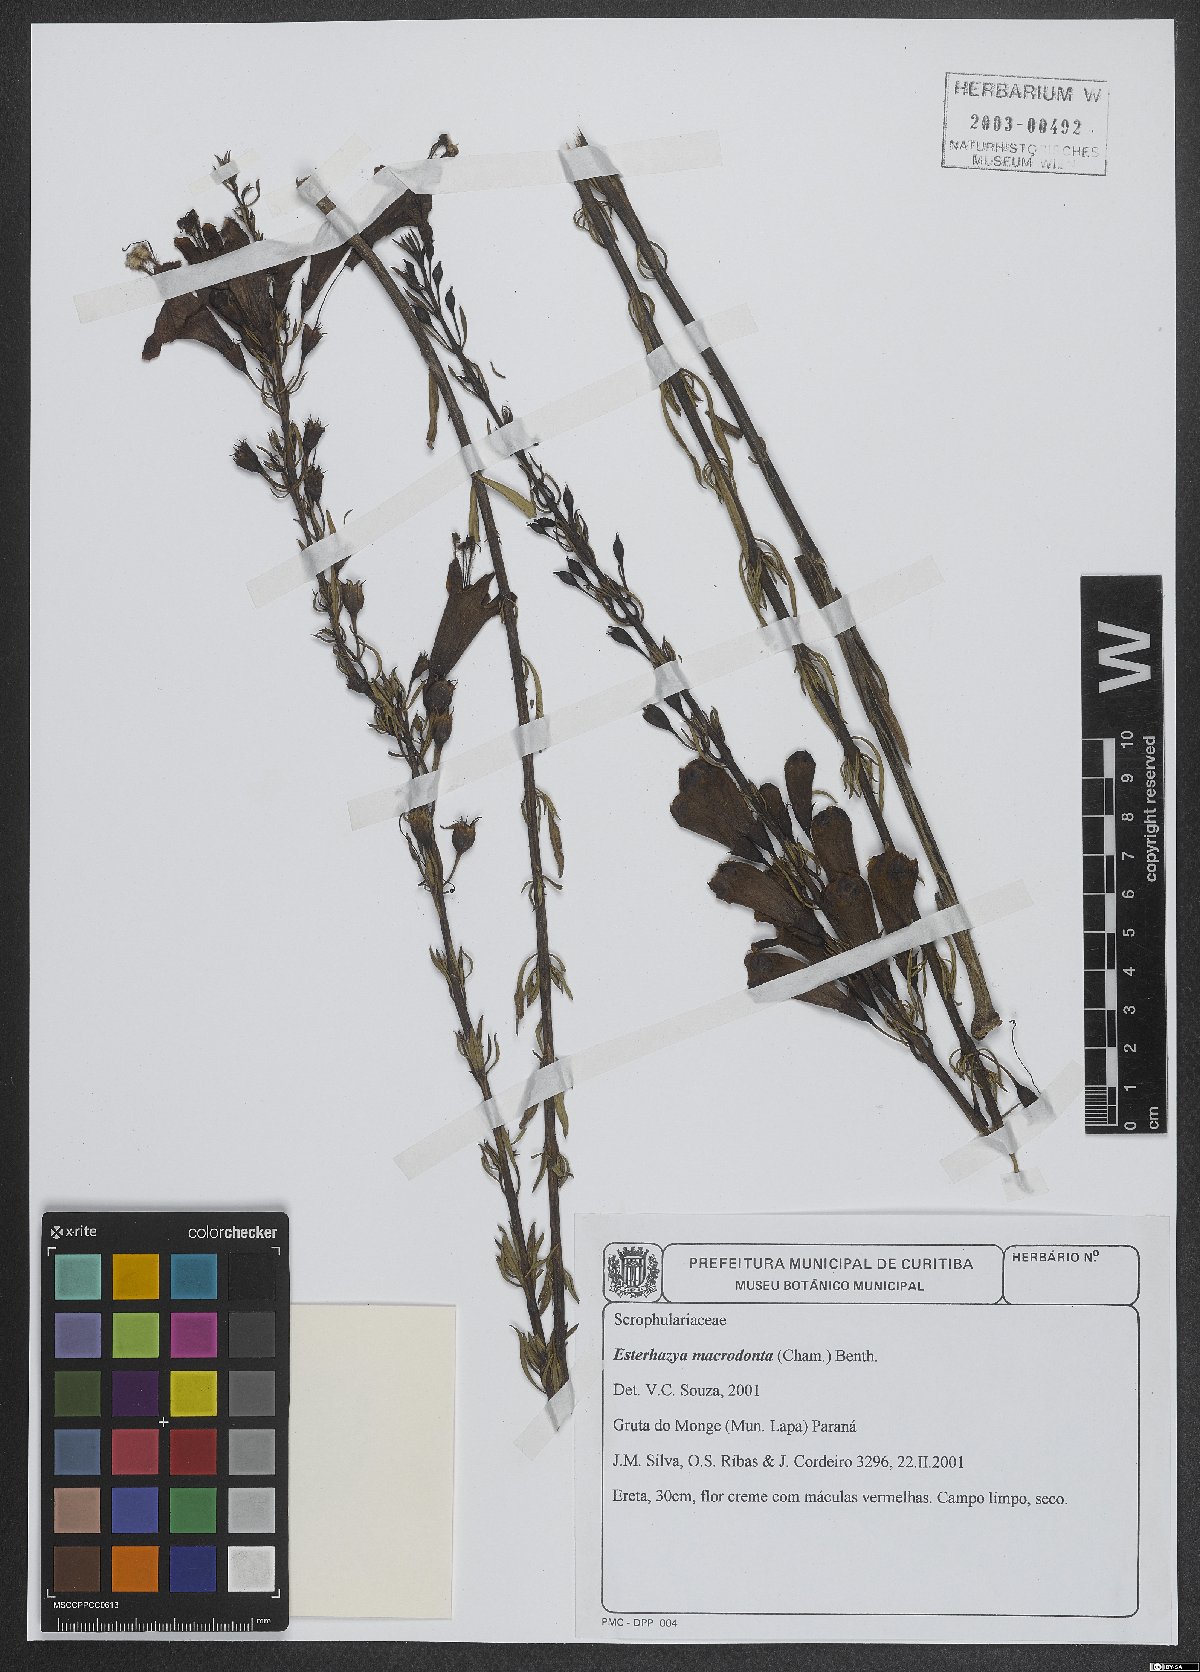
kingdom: Plantae
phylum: Tracheophyta
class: Magnoliopsida
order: Lamiales
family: Orobanchaceae
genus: Esterhazya
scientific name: Esterhazya macrodonta
